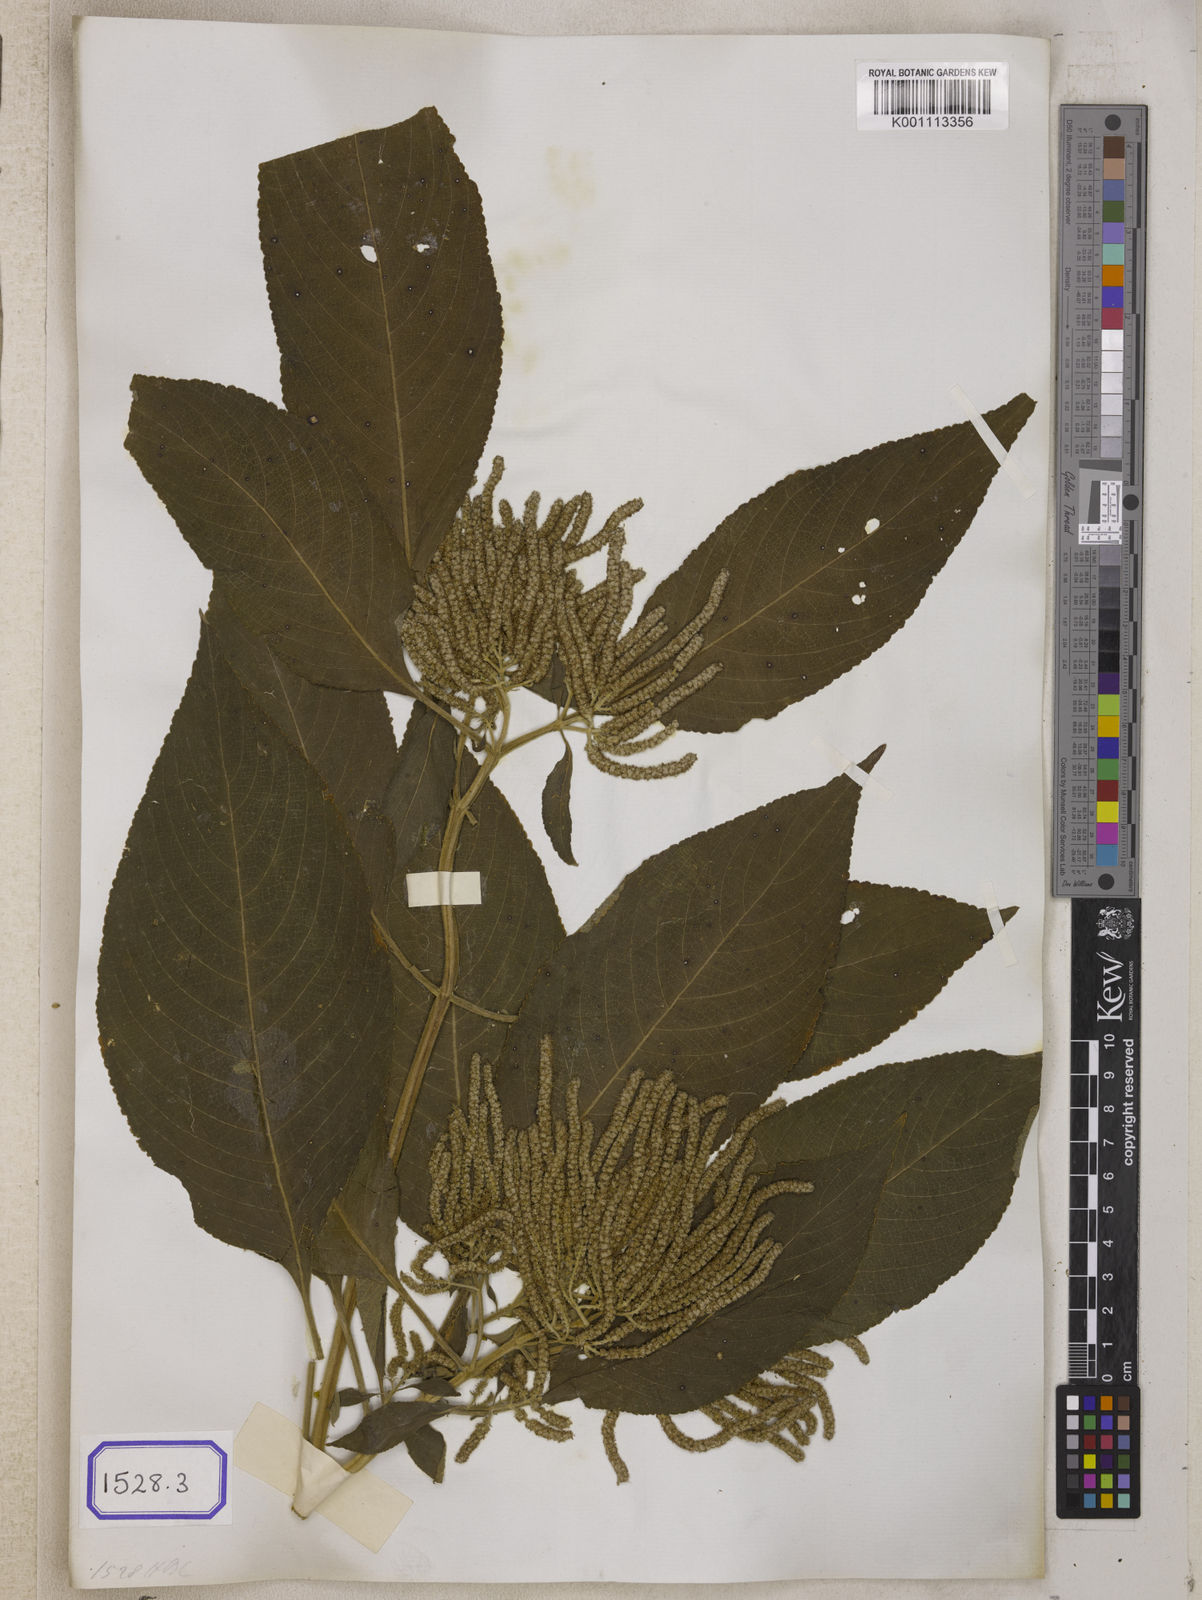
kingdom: Plantae
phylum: Tracheophyta
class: Magnoliopsida
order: Lamiales
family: Lamiaceae
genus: Colebrookea
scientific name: Colebrookea
